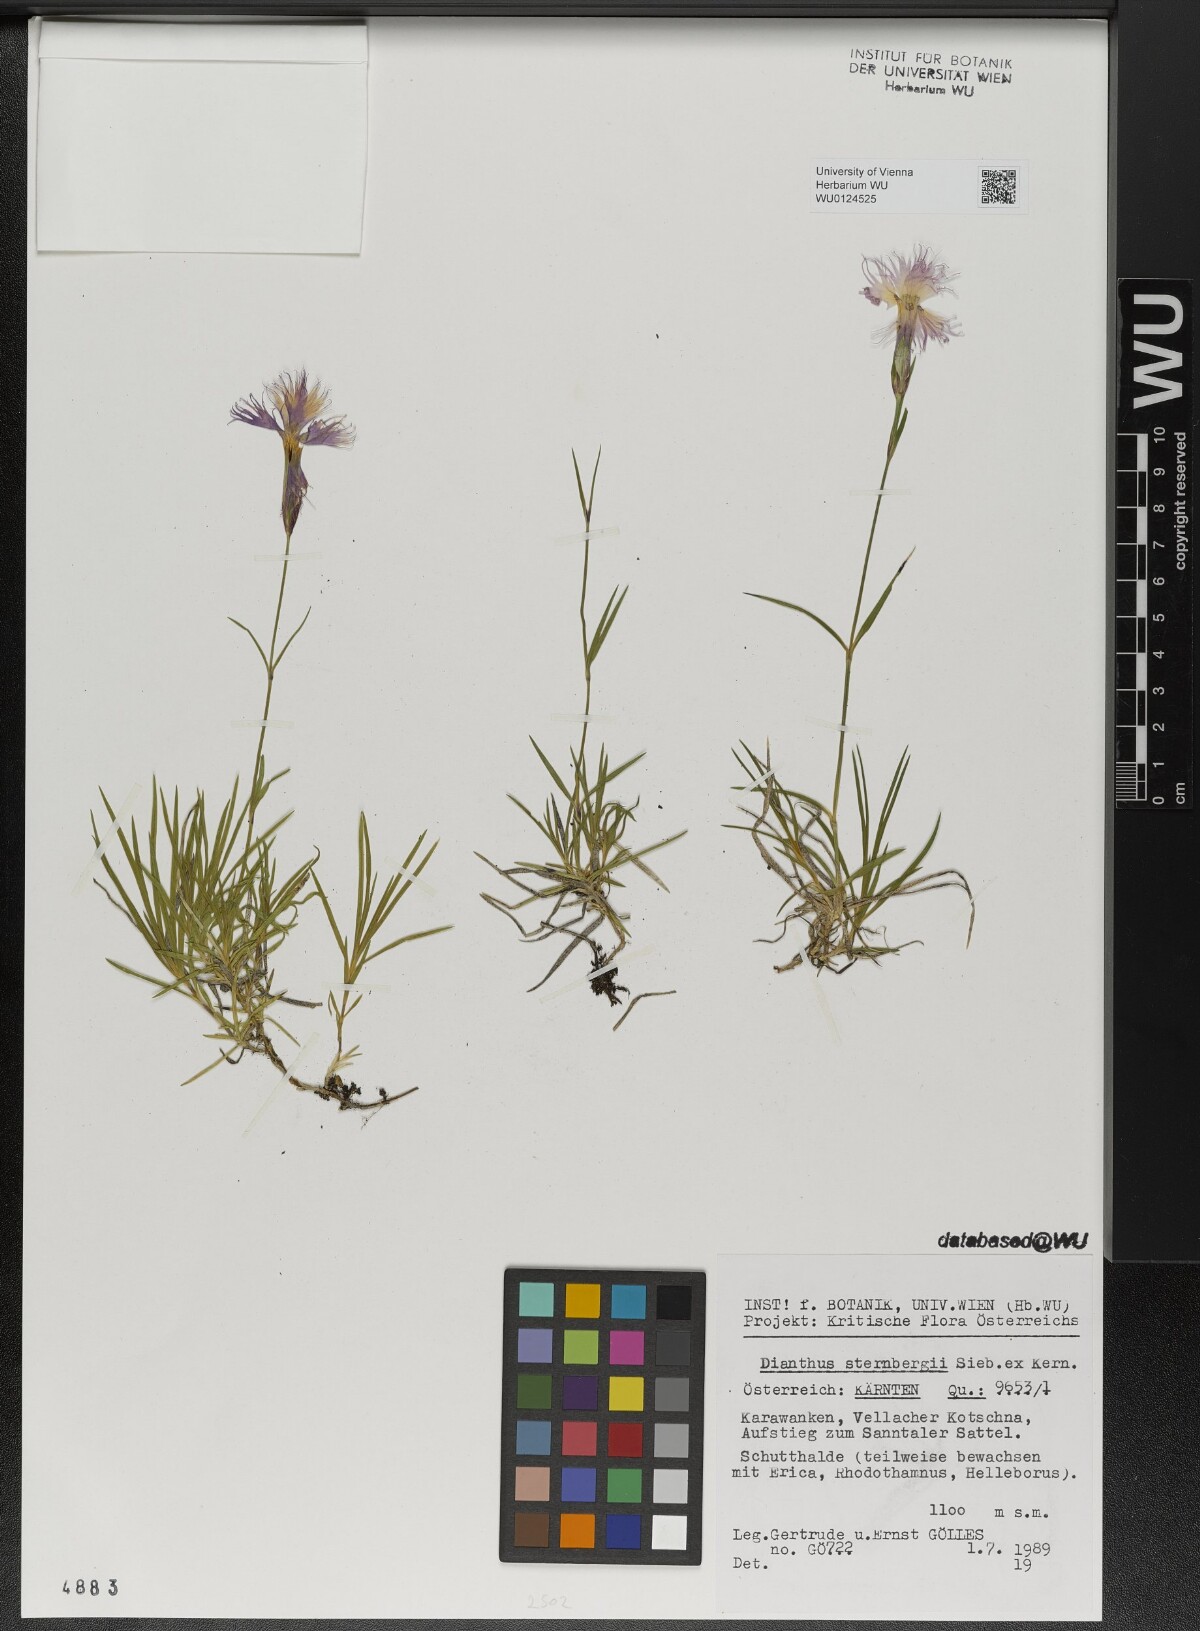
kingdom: Plantae
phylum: Tracheophyta
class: Magnoliopsida
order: Caryophyllales
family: Caryophyllaceae
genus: Dianthus
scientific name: Dianthus sternbergii
